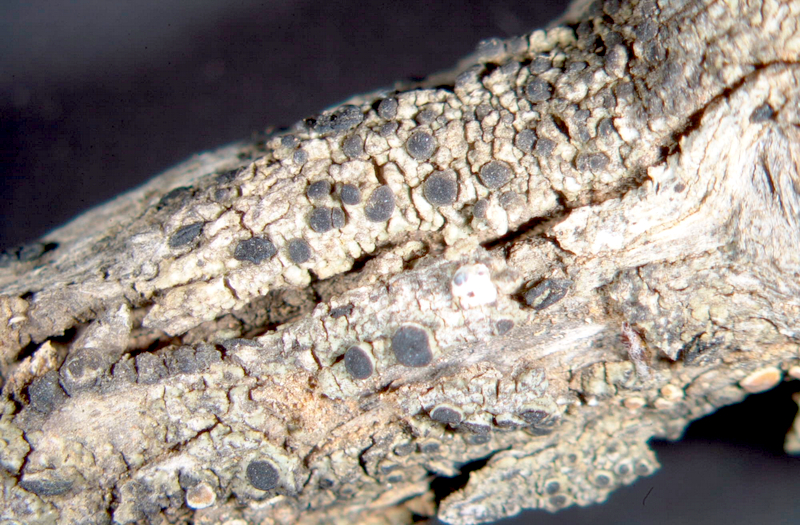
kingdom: Fungi
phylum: Ascomycota
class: Lecanoromycetes
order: Caliciales
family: Physciaceae
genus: Rinodina
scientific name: Rinodina australiensis
